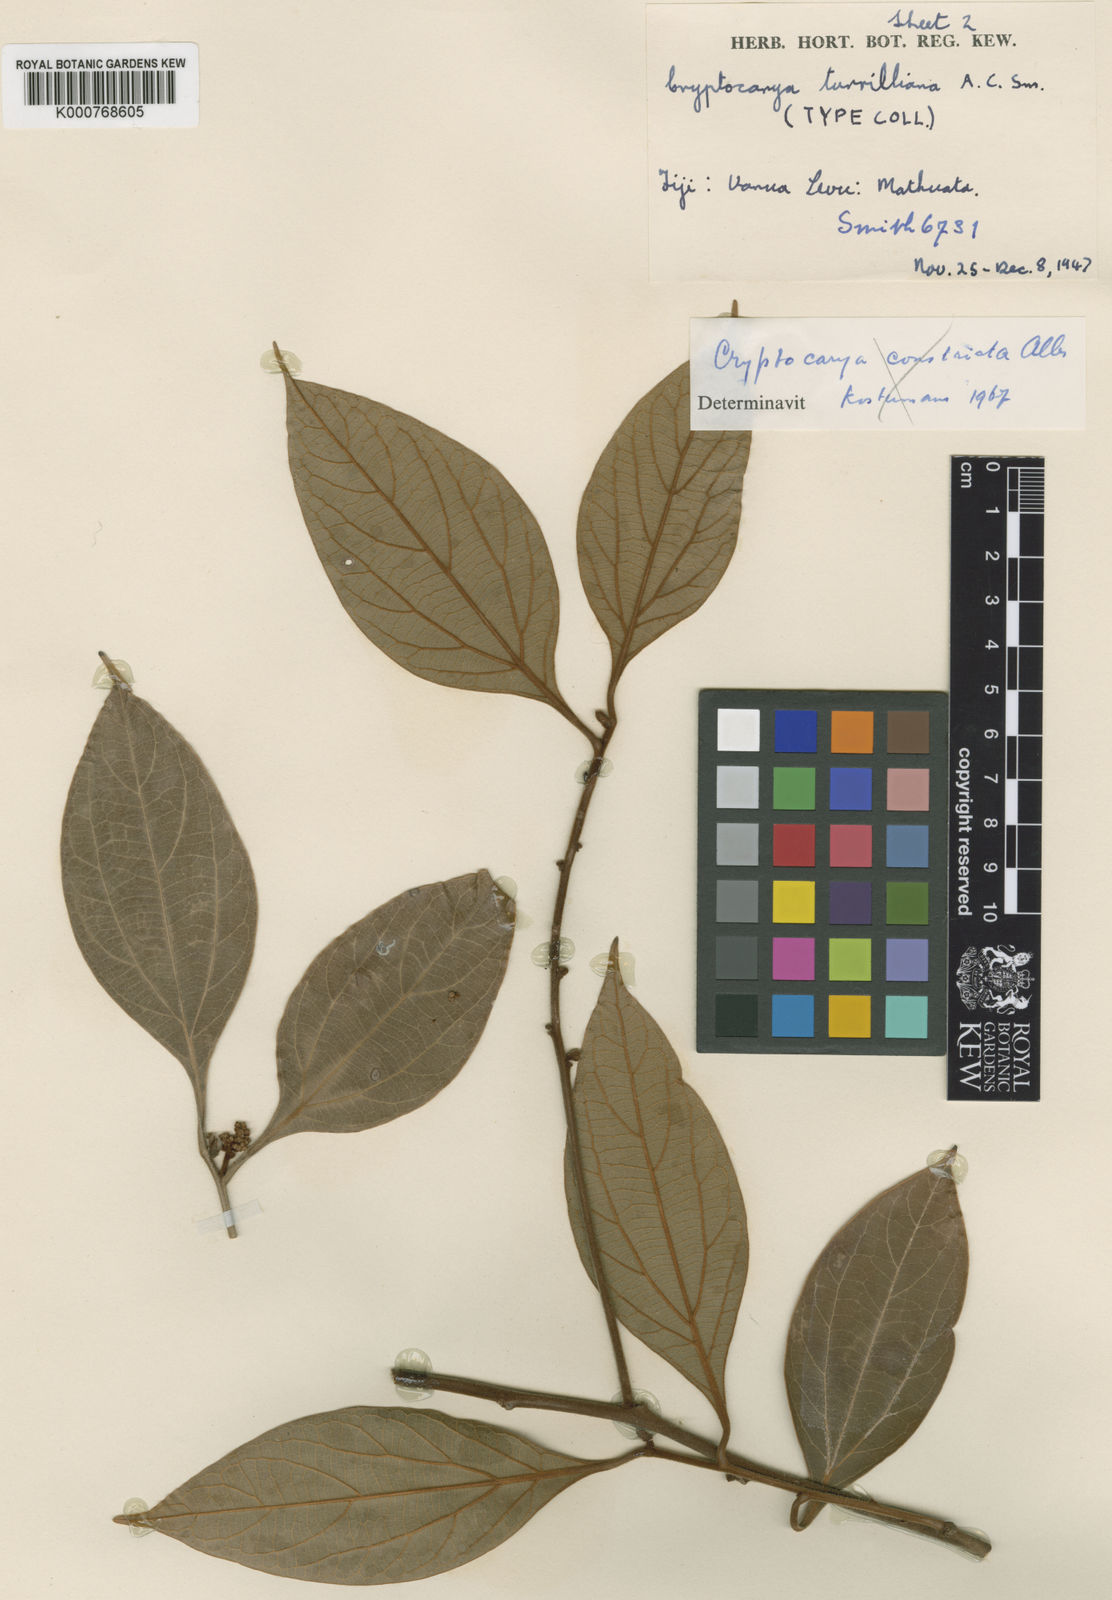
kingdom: Plantae
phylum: Tracheophyta
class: Magnoliopsida
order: Laurales
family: Lauraceae
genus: Cryptocarya
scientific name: Cryptocarya turrilliana
